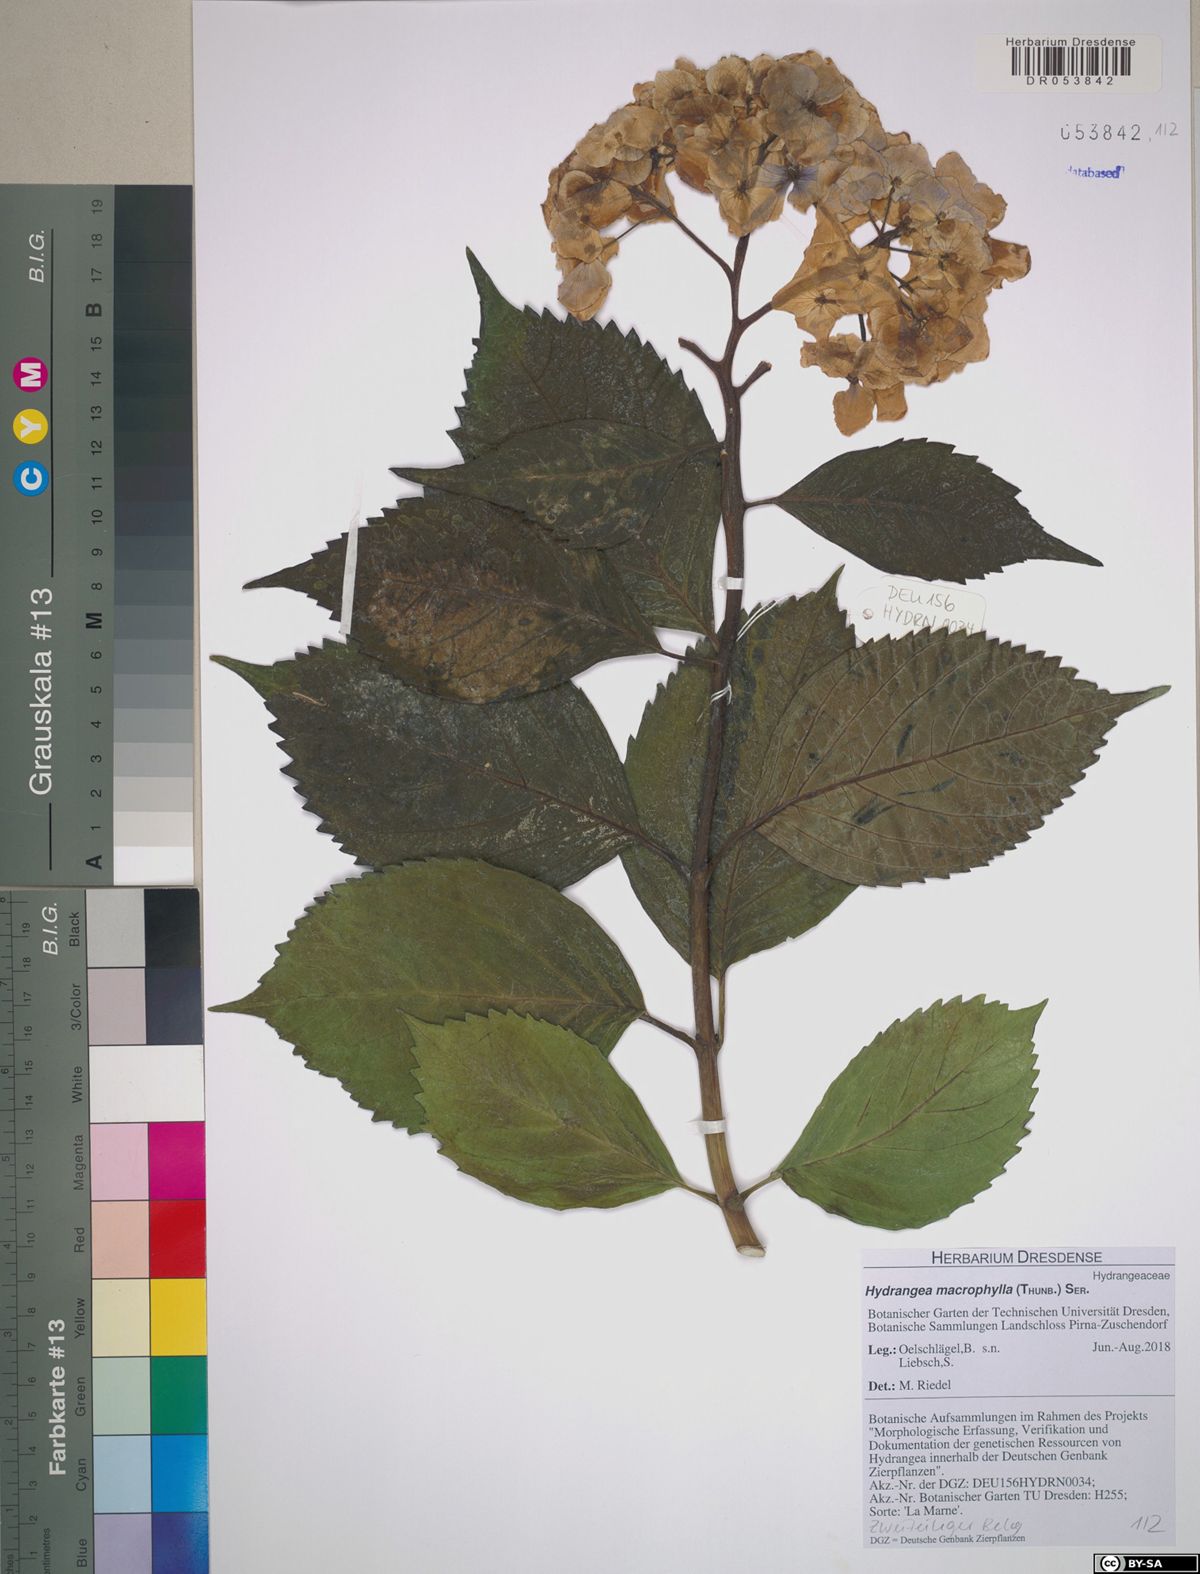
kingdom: Plantae
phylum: Tracheophyta
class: Magnoliopsida
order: Cornales
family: Hydrangeaceae
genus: Hydrangea
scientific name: Hydrangea macrophylla
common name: Hydrangea
